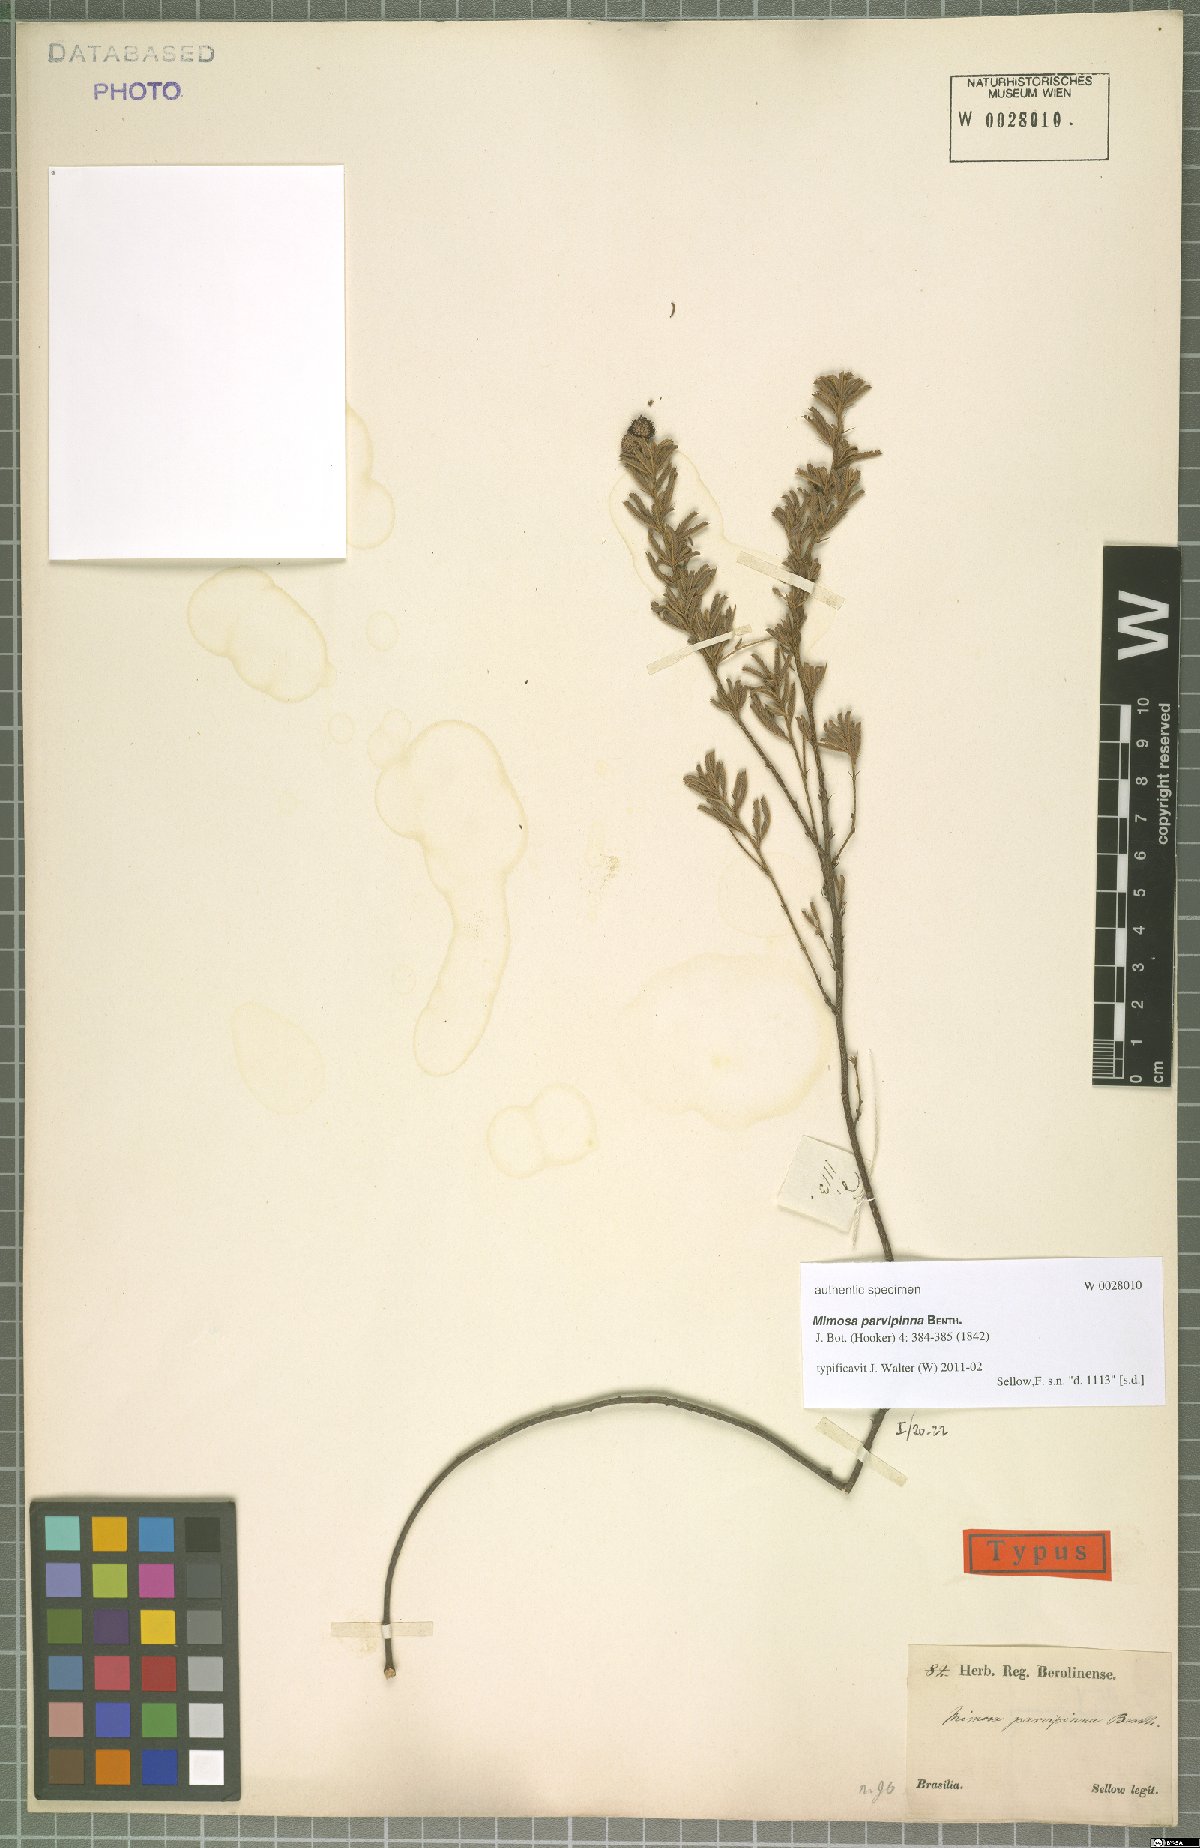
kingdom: Plantae
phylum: Tracheophyta
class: Magnoliopsida
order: Fabales
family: Fabaceae
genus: Mimosa
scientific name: Mimosa parvipinna
